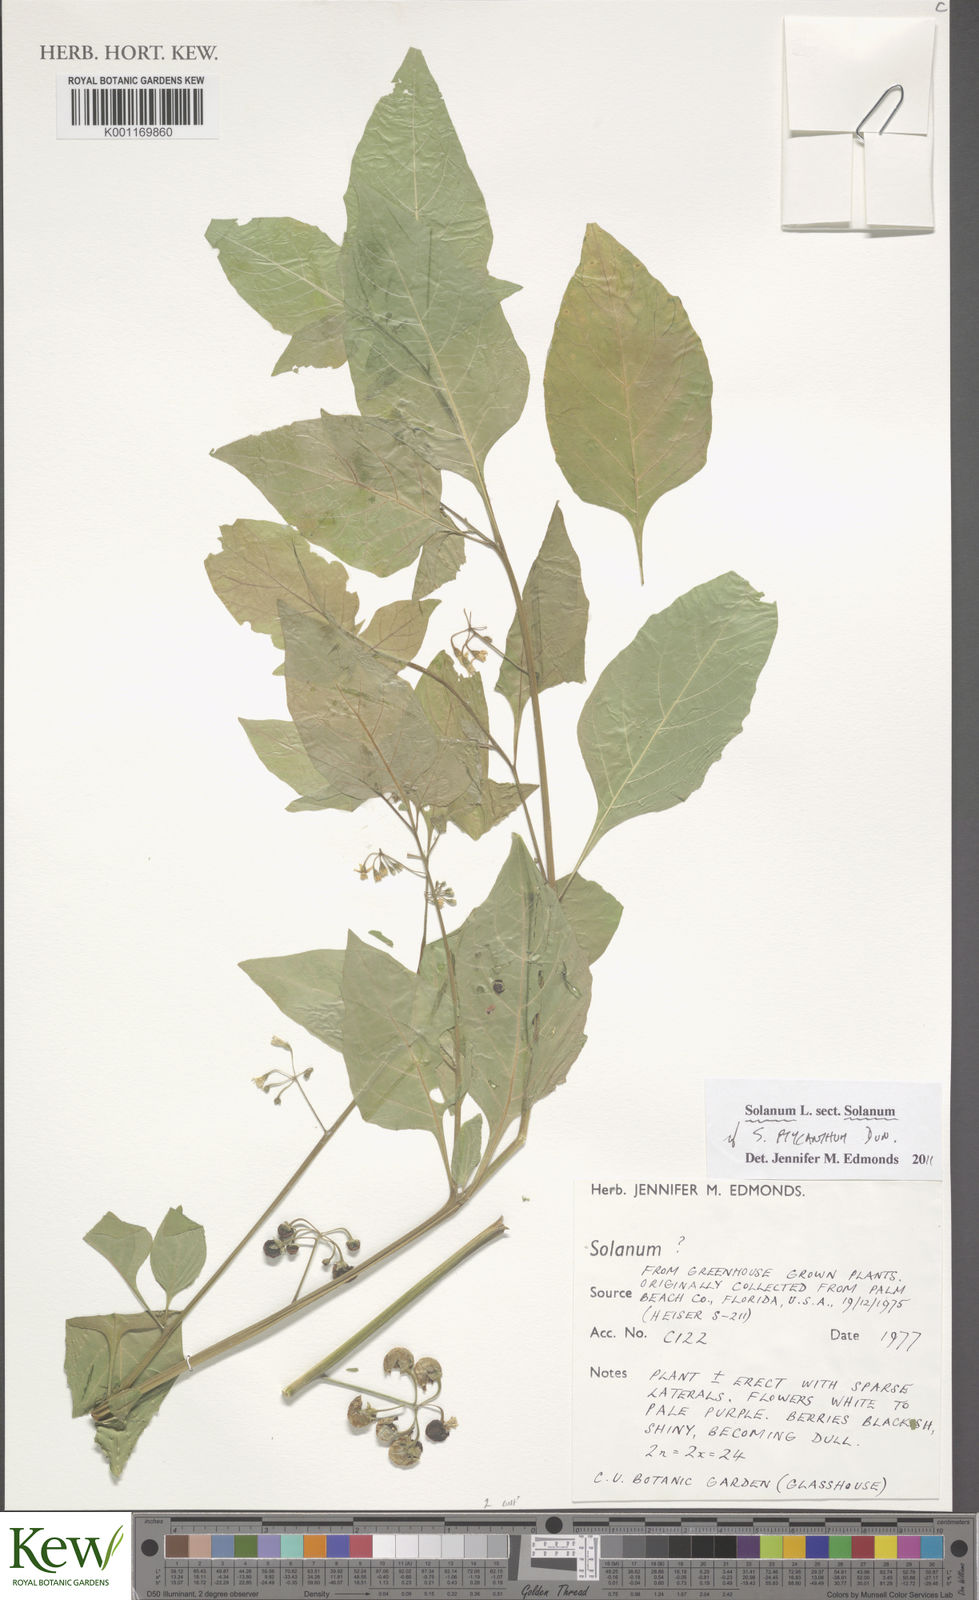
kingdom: Plantae
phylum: Tracheophyta
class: Magnoliopsida
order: Solanales
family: Solanaceae
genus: Solanum
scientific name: Solanum americanum
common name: American black nightshade
